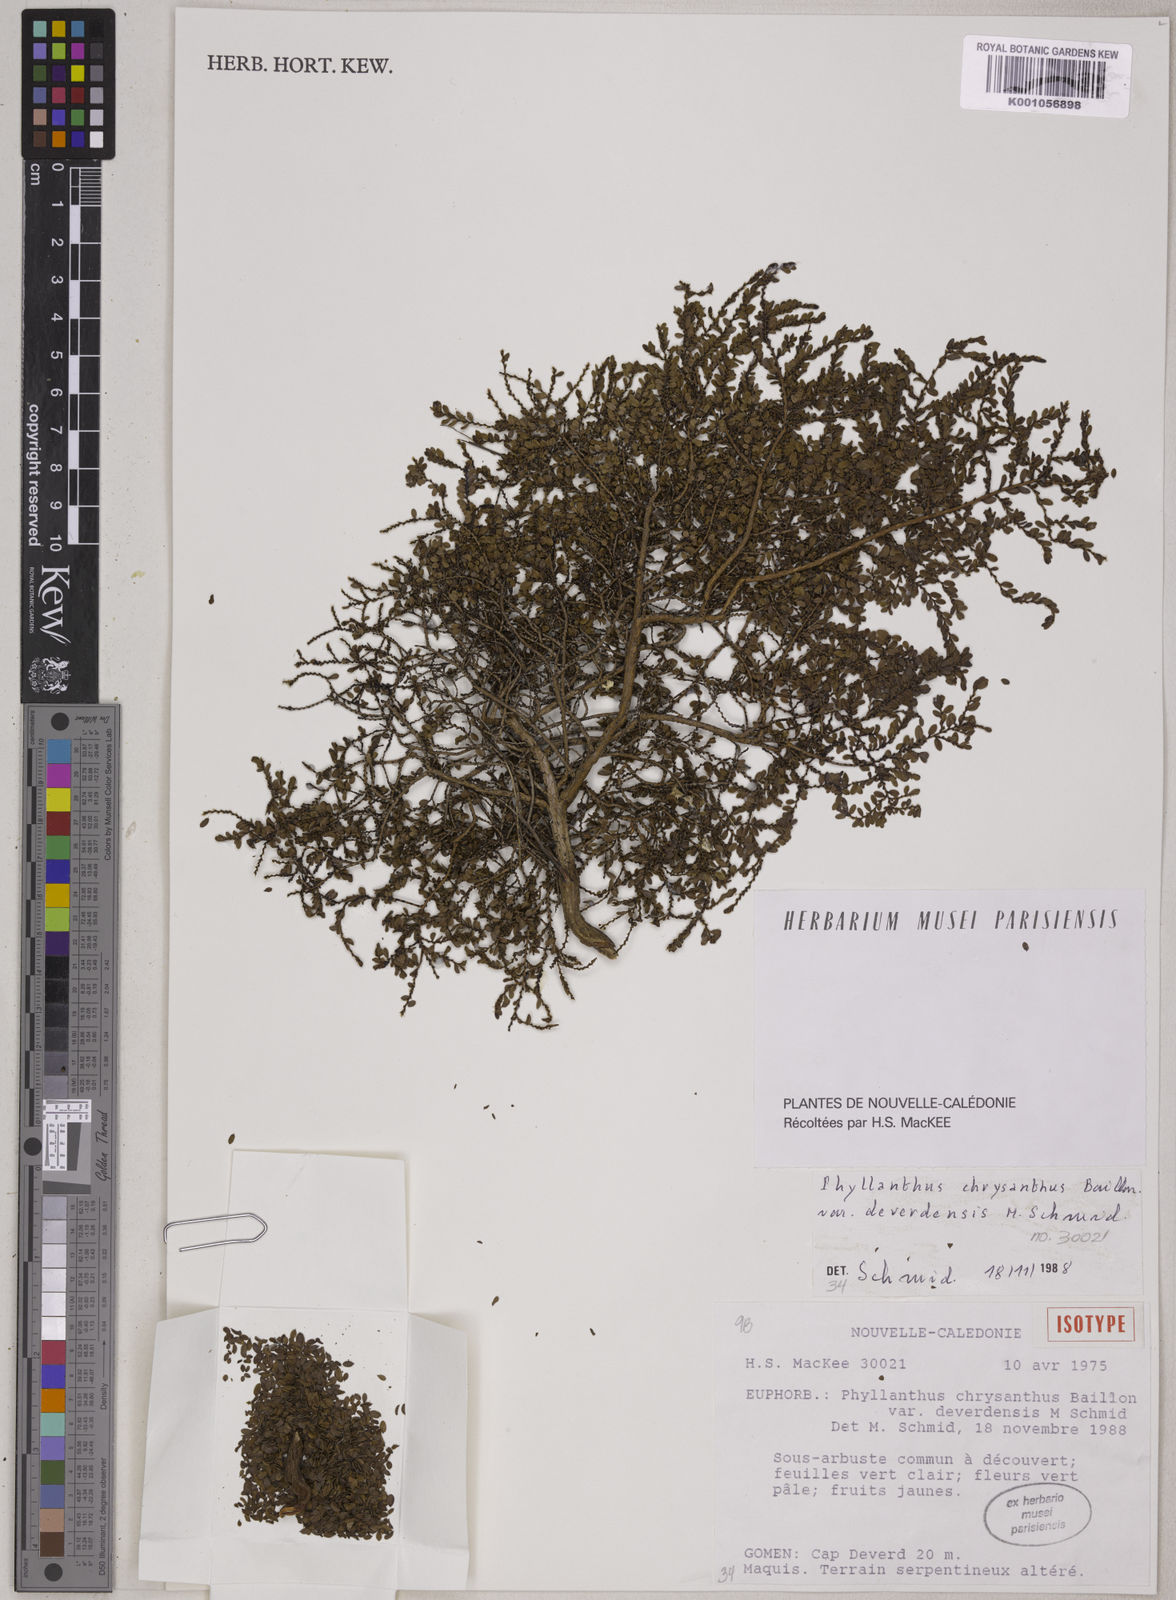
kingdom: Plantae
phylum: Tracheophyta
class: Magnoliopsida
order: Malpighiales
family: Phyllanthaceae
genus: Phyllanthus
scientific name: Phyllanthus chrysanthus
